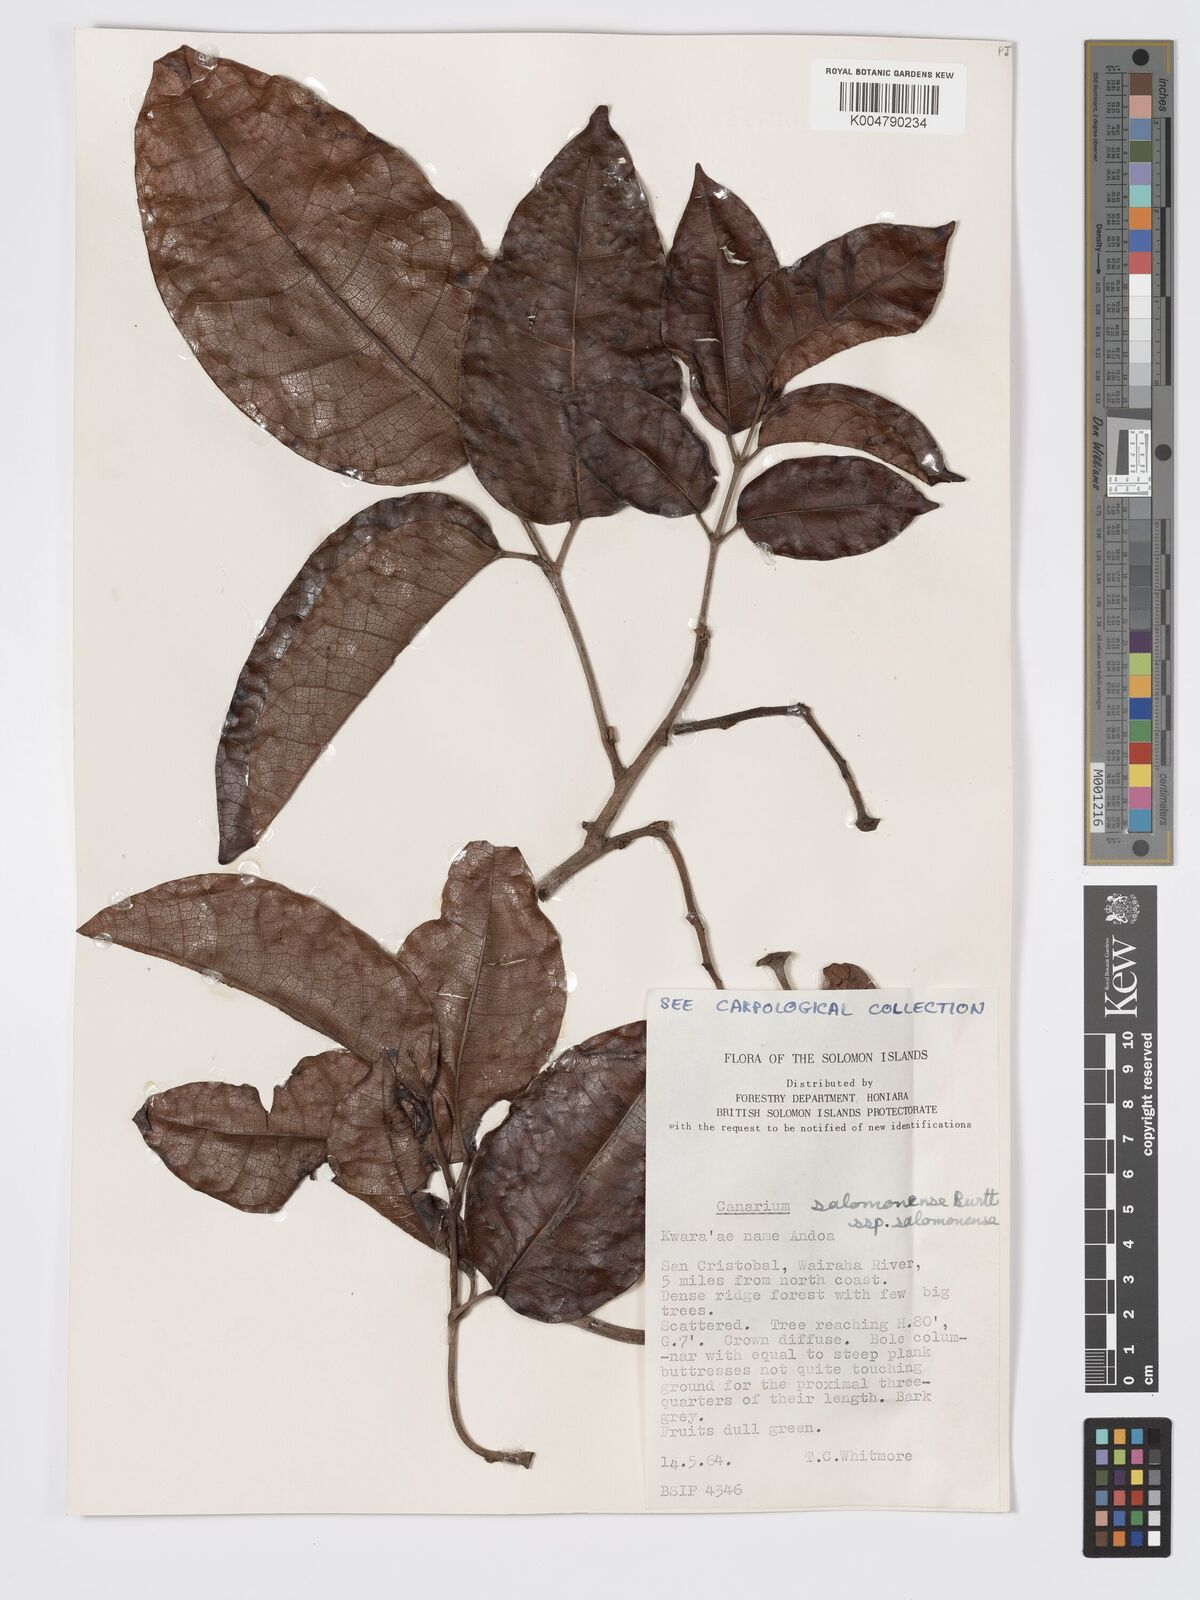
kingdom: Plantae
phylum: Tracheophyta
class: Magnoliopsida
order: Sapindales
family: Burseraceae
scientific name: Burseraceae
